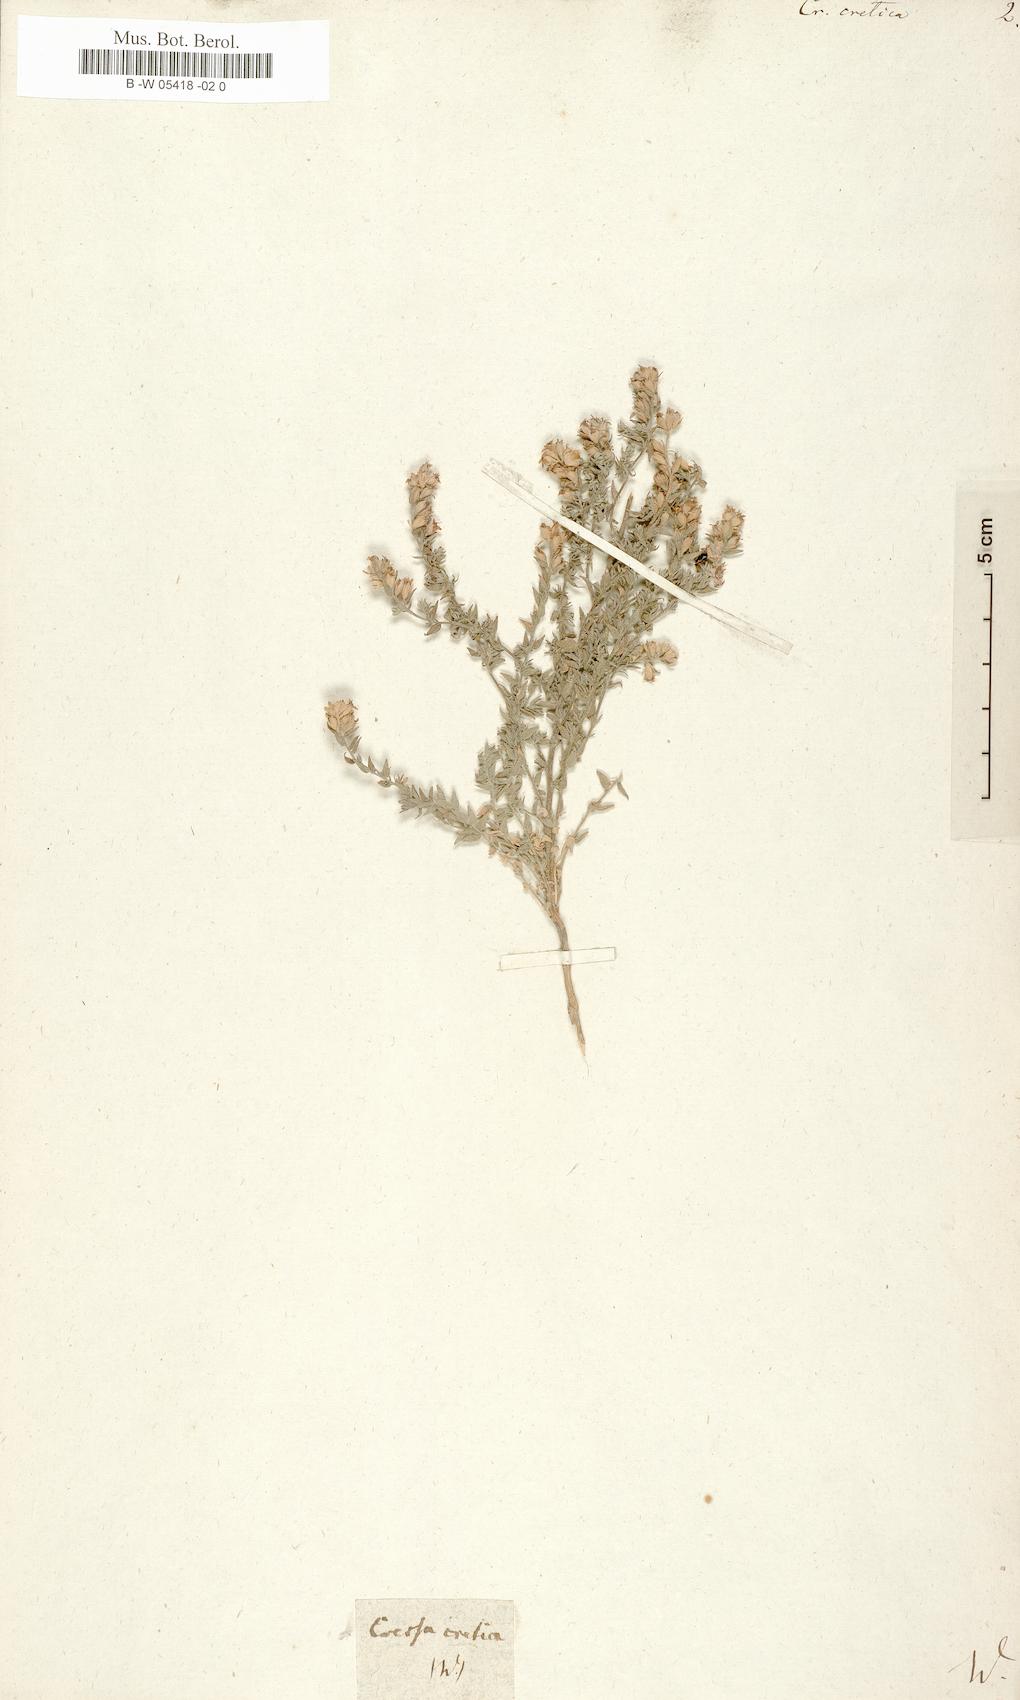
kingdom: Plantae
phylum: Tracheophyta
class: Magnoliopsida
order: Solanales
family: Convolvulaceae
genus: Cressa
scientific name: Cressa cretica
